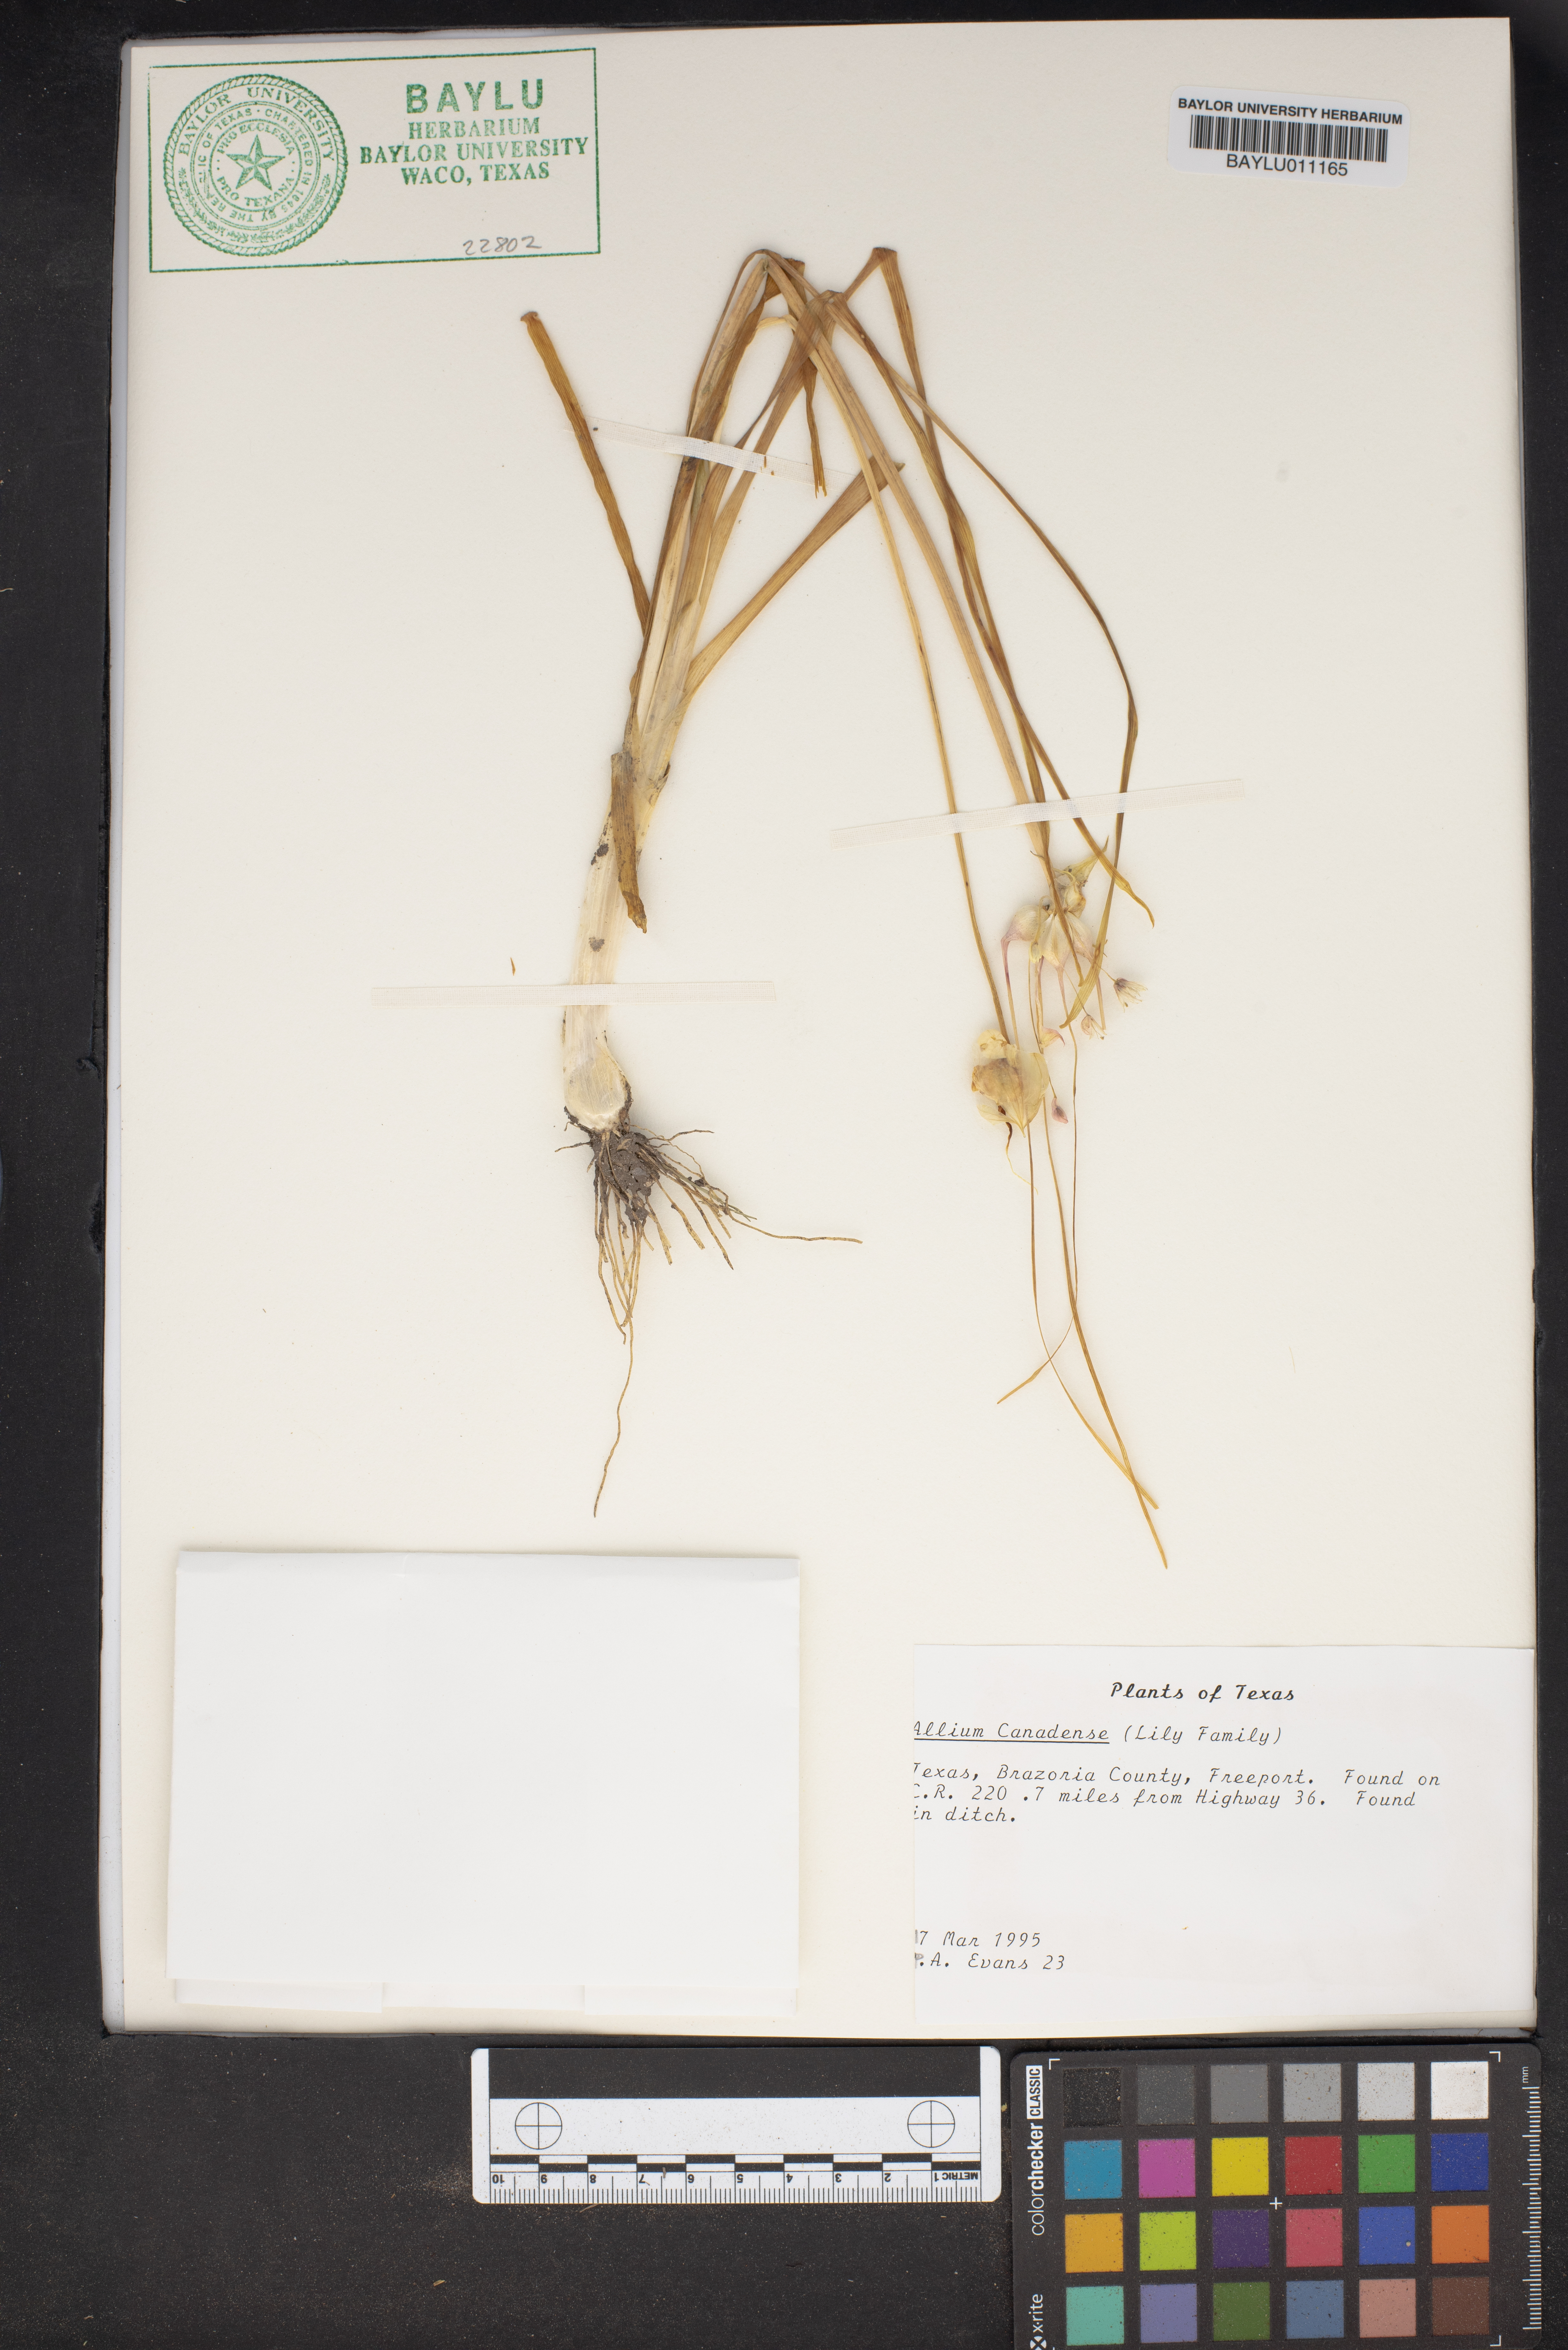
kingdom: Plantae
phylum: Tracheophyta
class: Liliopsida
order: Asparagales
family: Amaryllidaceae
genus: Allium
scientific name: Allium canadense
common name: Meadow garlic
